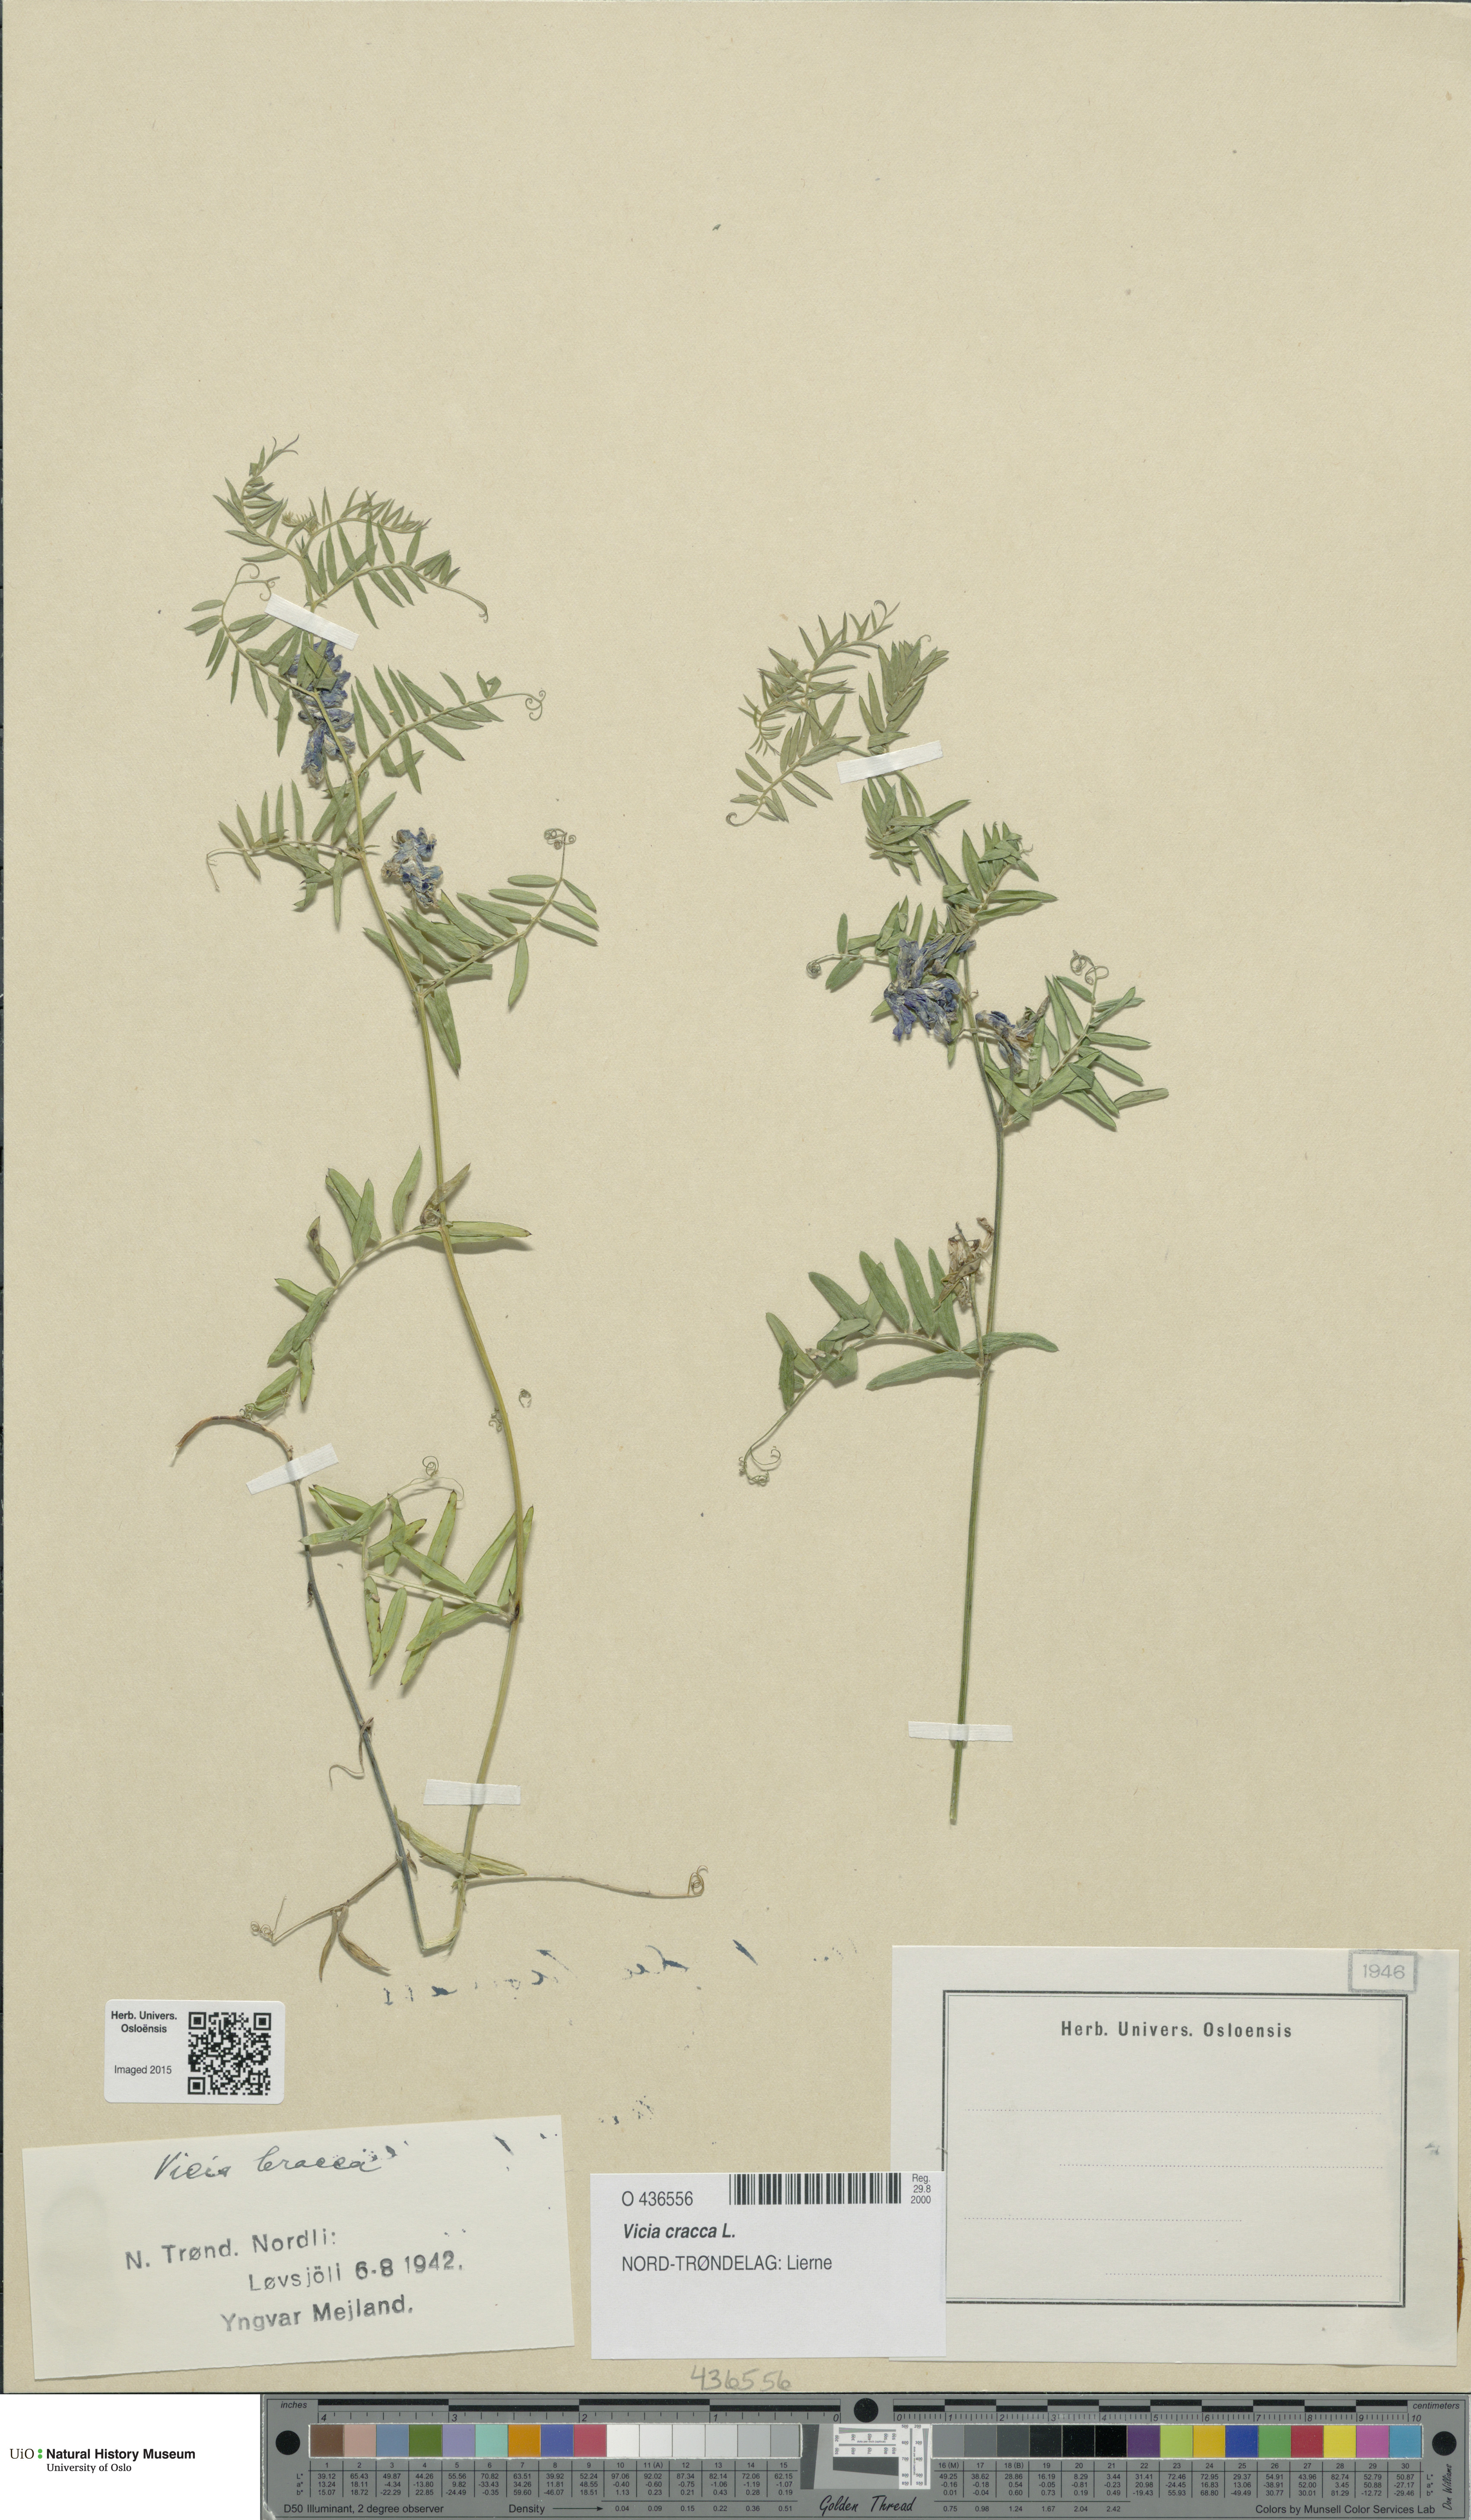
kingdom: Plantae
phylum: Tracheophyta
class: Magnoliopsida
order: Fabales
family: Fabaceae
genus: Vicia
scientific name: Vicia cracca
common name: Bird vetch
